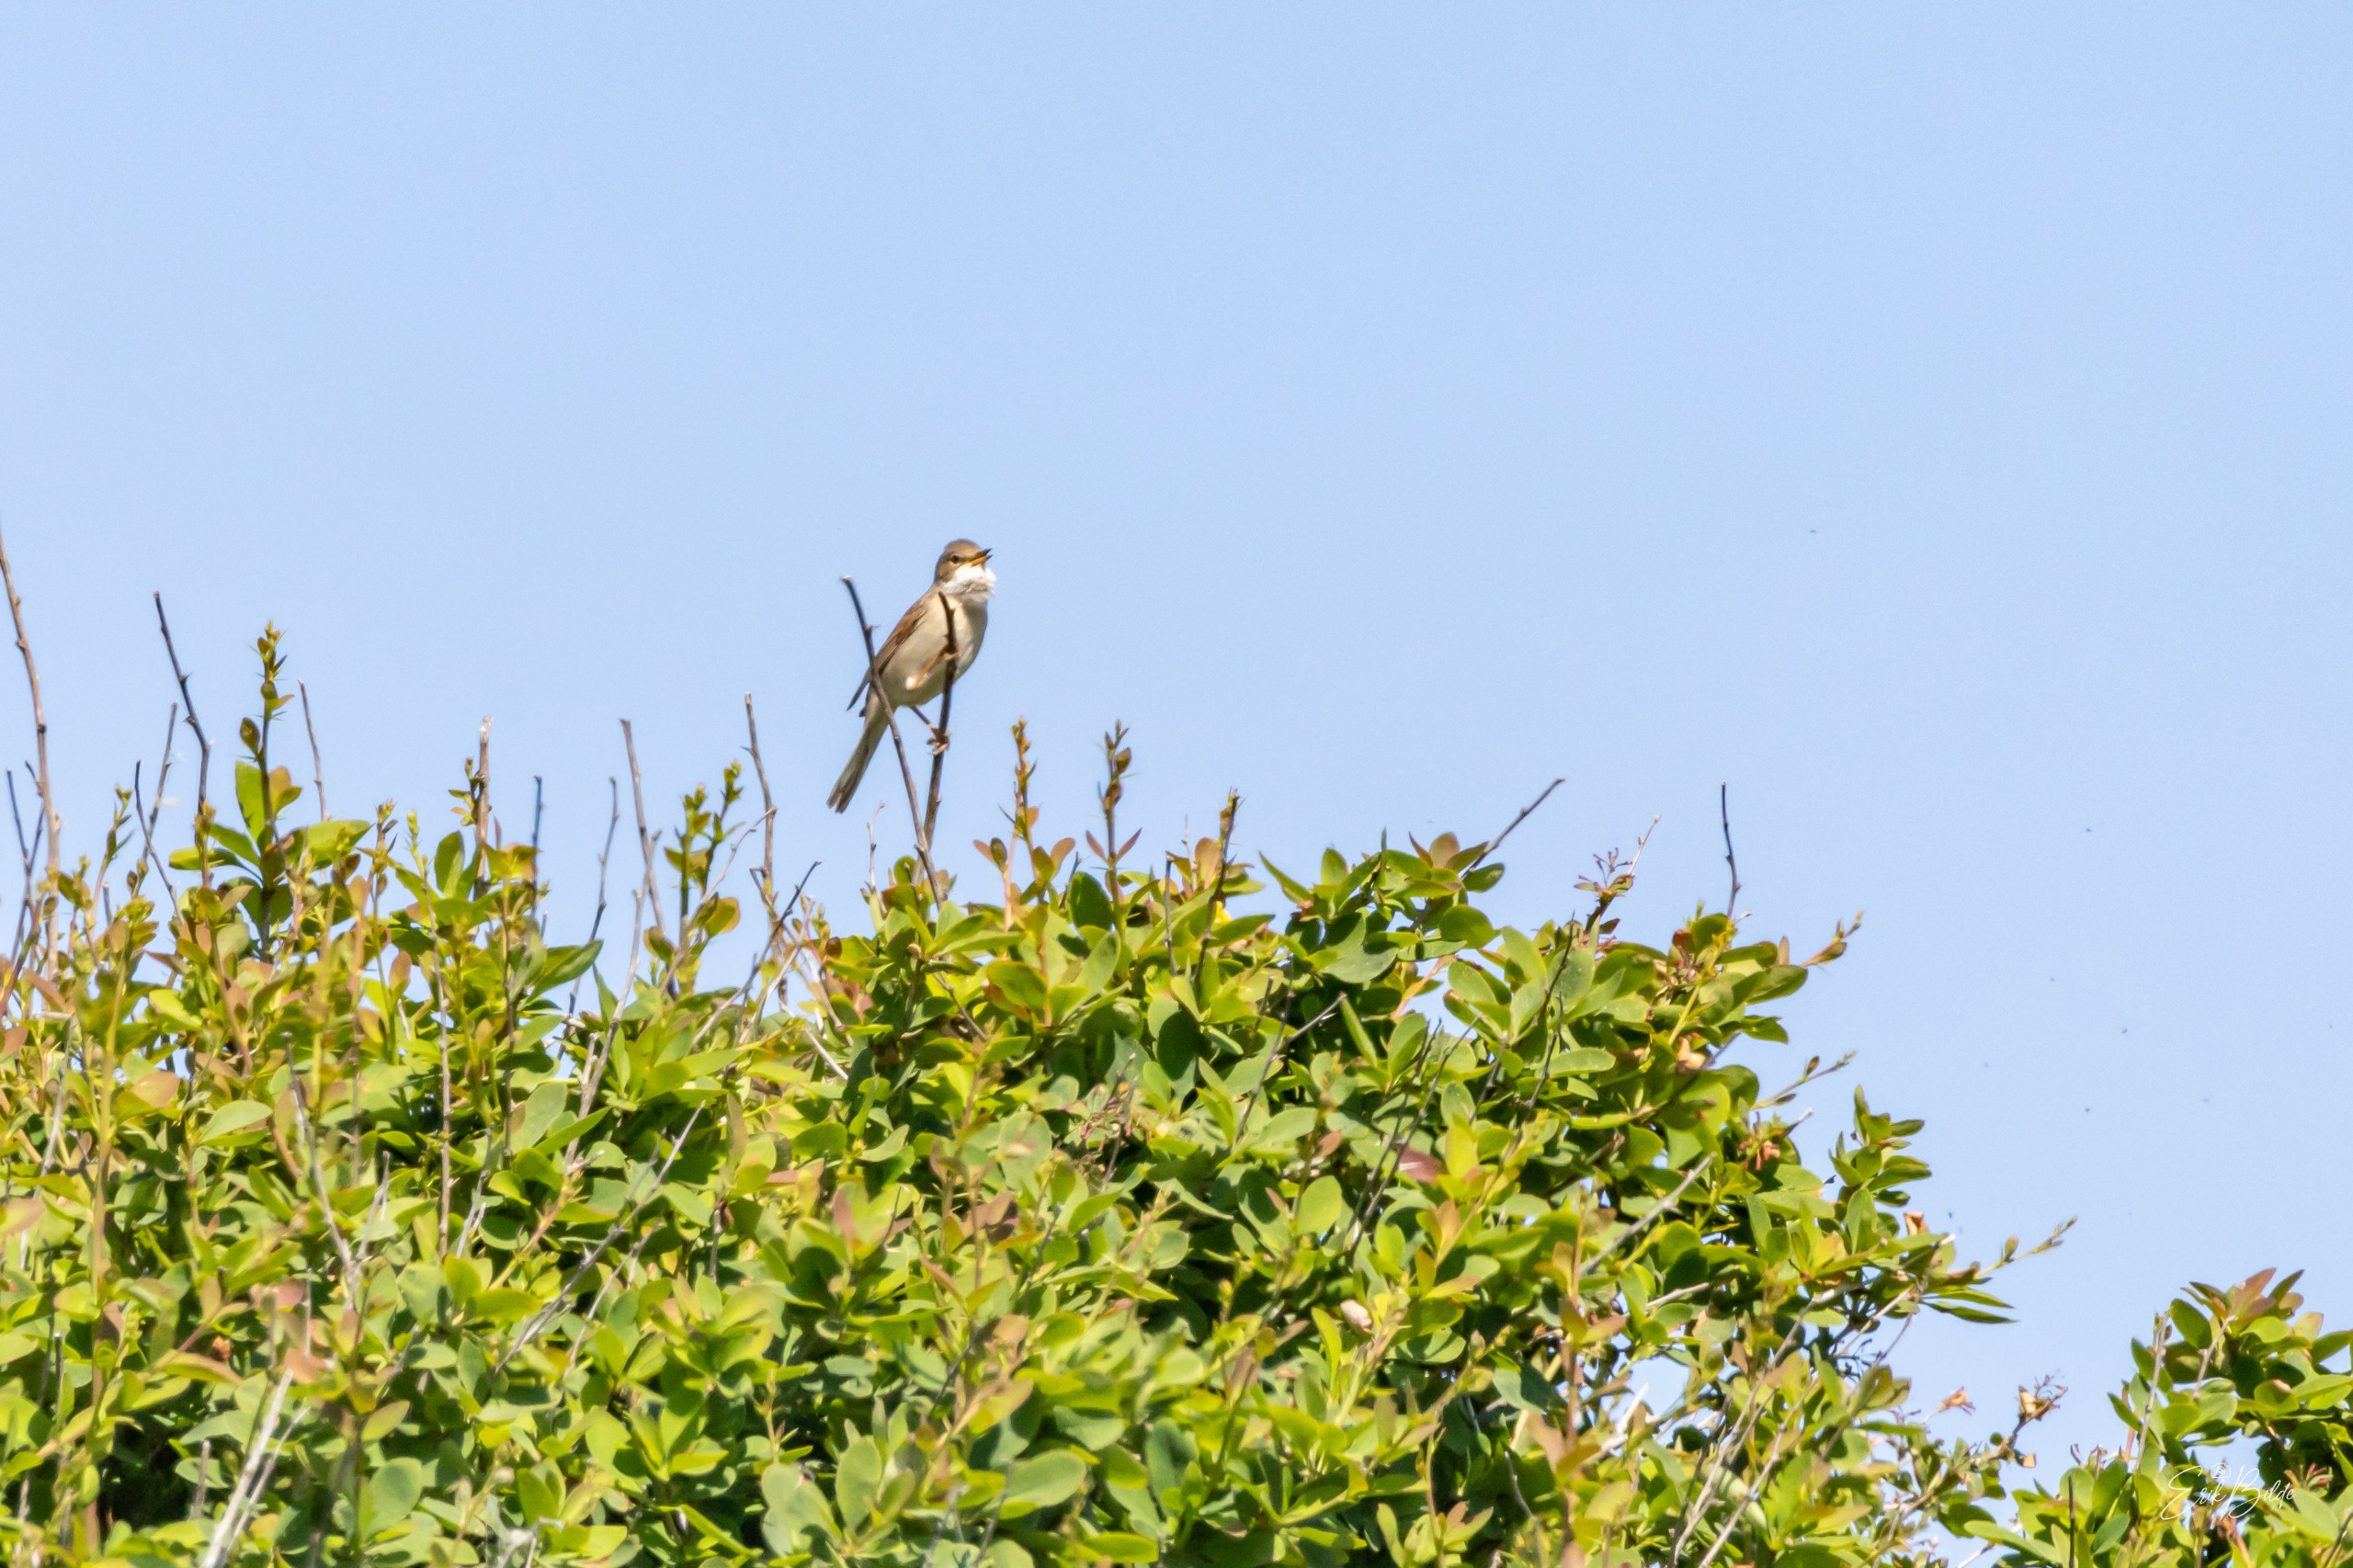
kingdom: Animalia
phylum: Chordata
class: Aves
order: Passeriformes
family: Sylviidae
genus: Sylvia
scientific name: Sylvia communis
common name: Tornsanger
